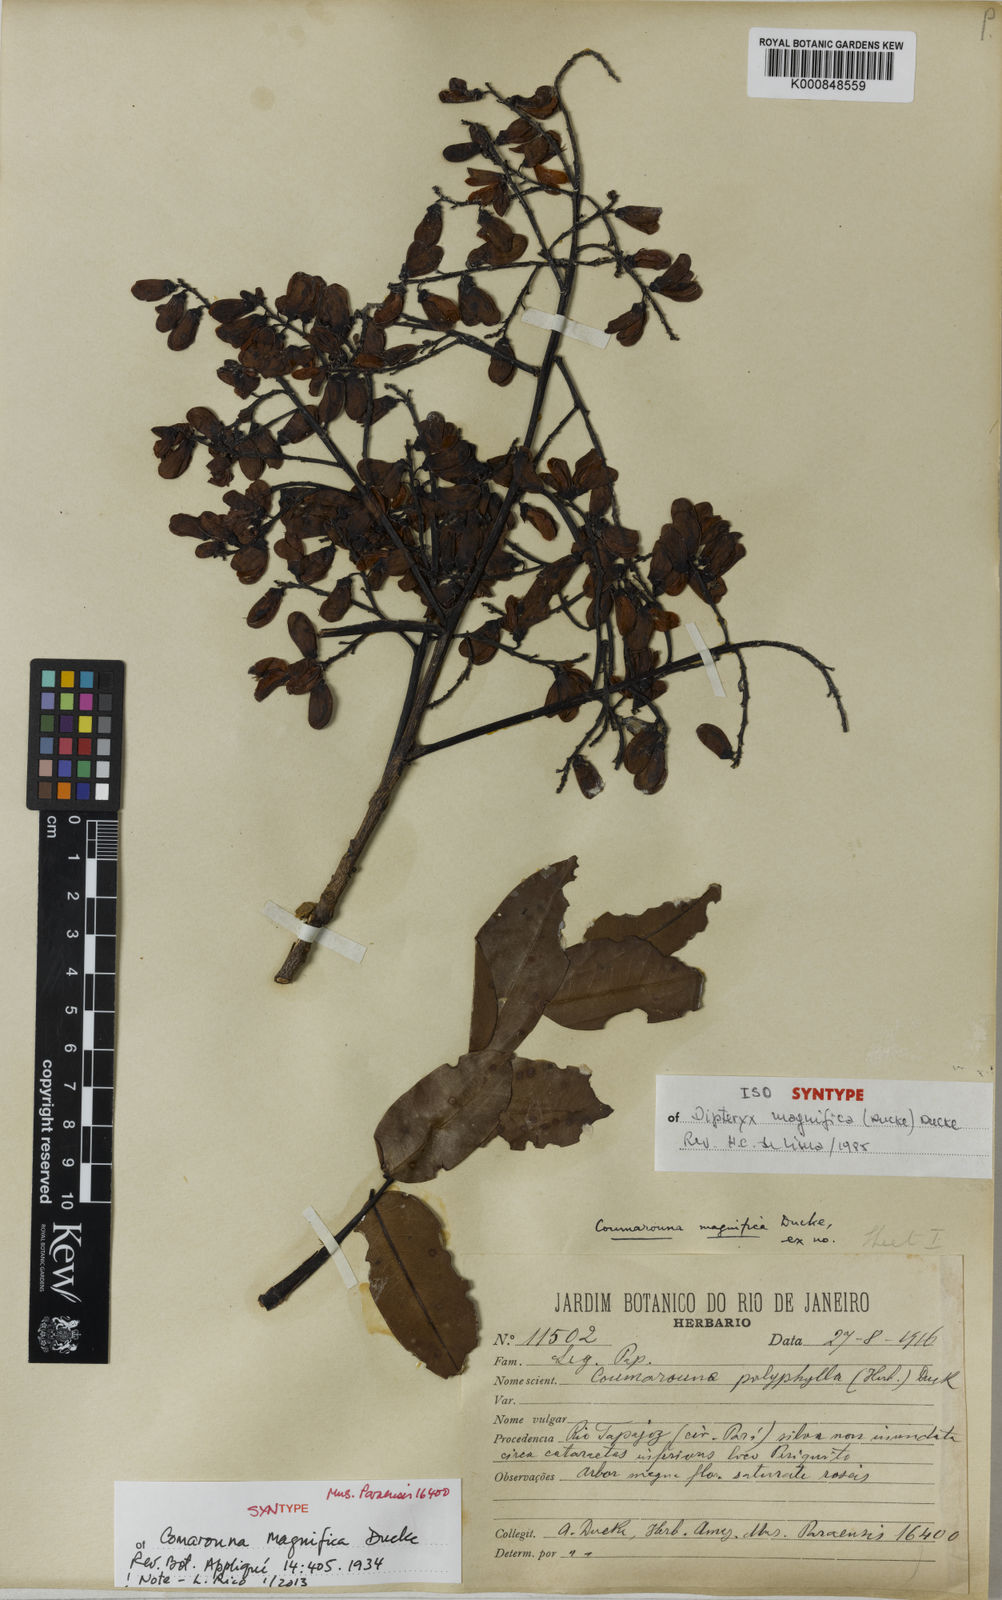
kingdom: Plantae
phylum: Tracheophyta
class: Magnoliopsida
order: Fabales
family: Fabaceae
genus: Dipteryx
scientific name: Dipteryx magnifica
